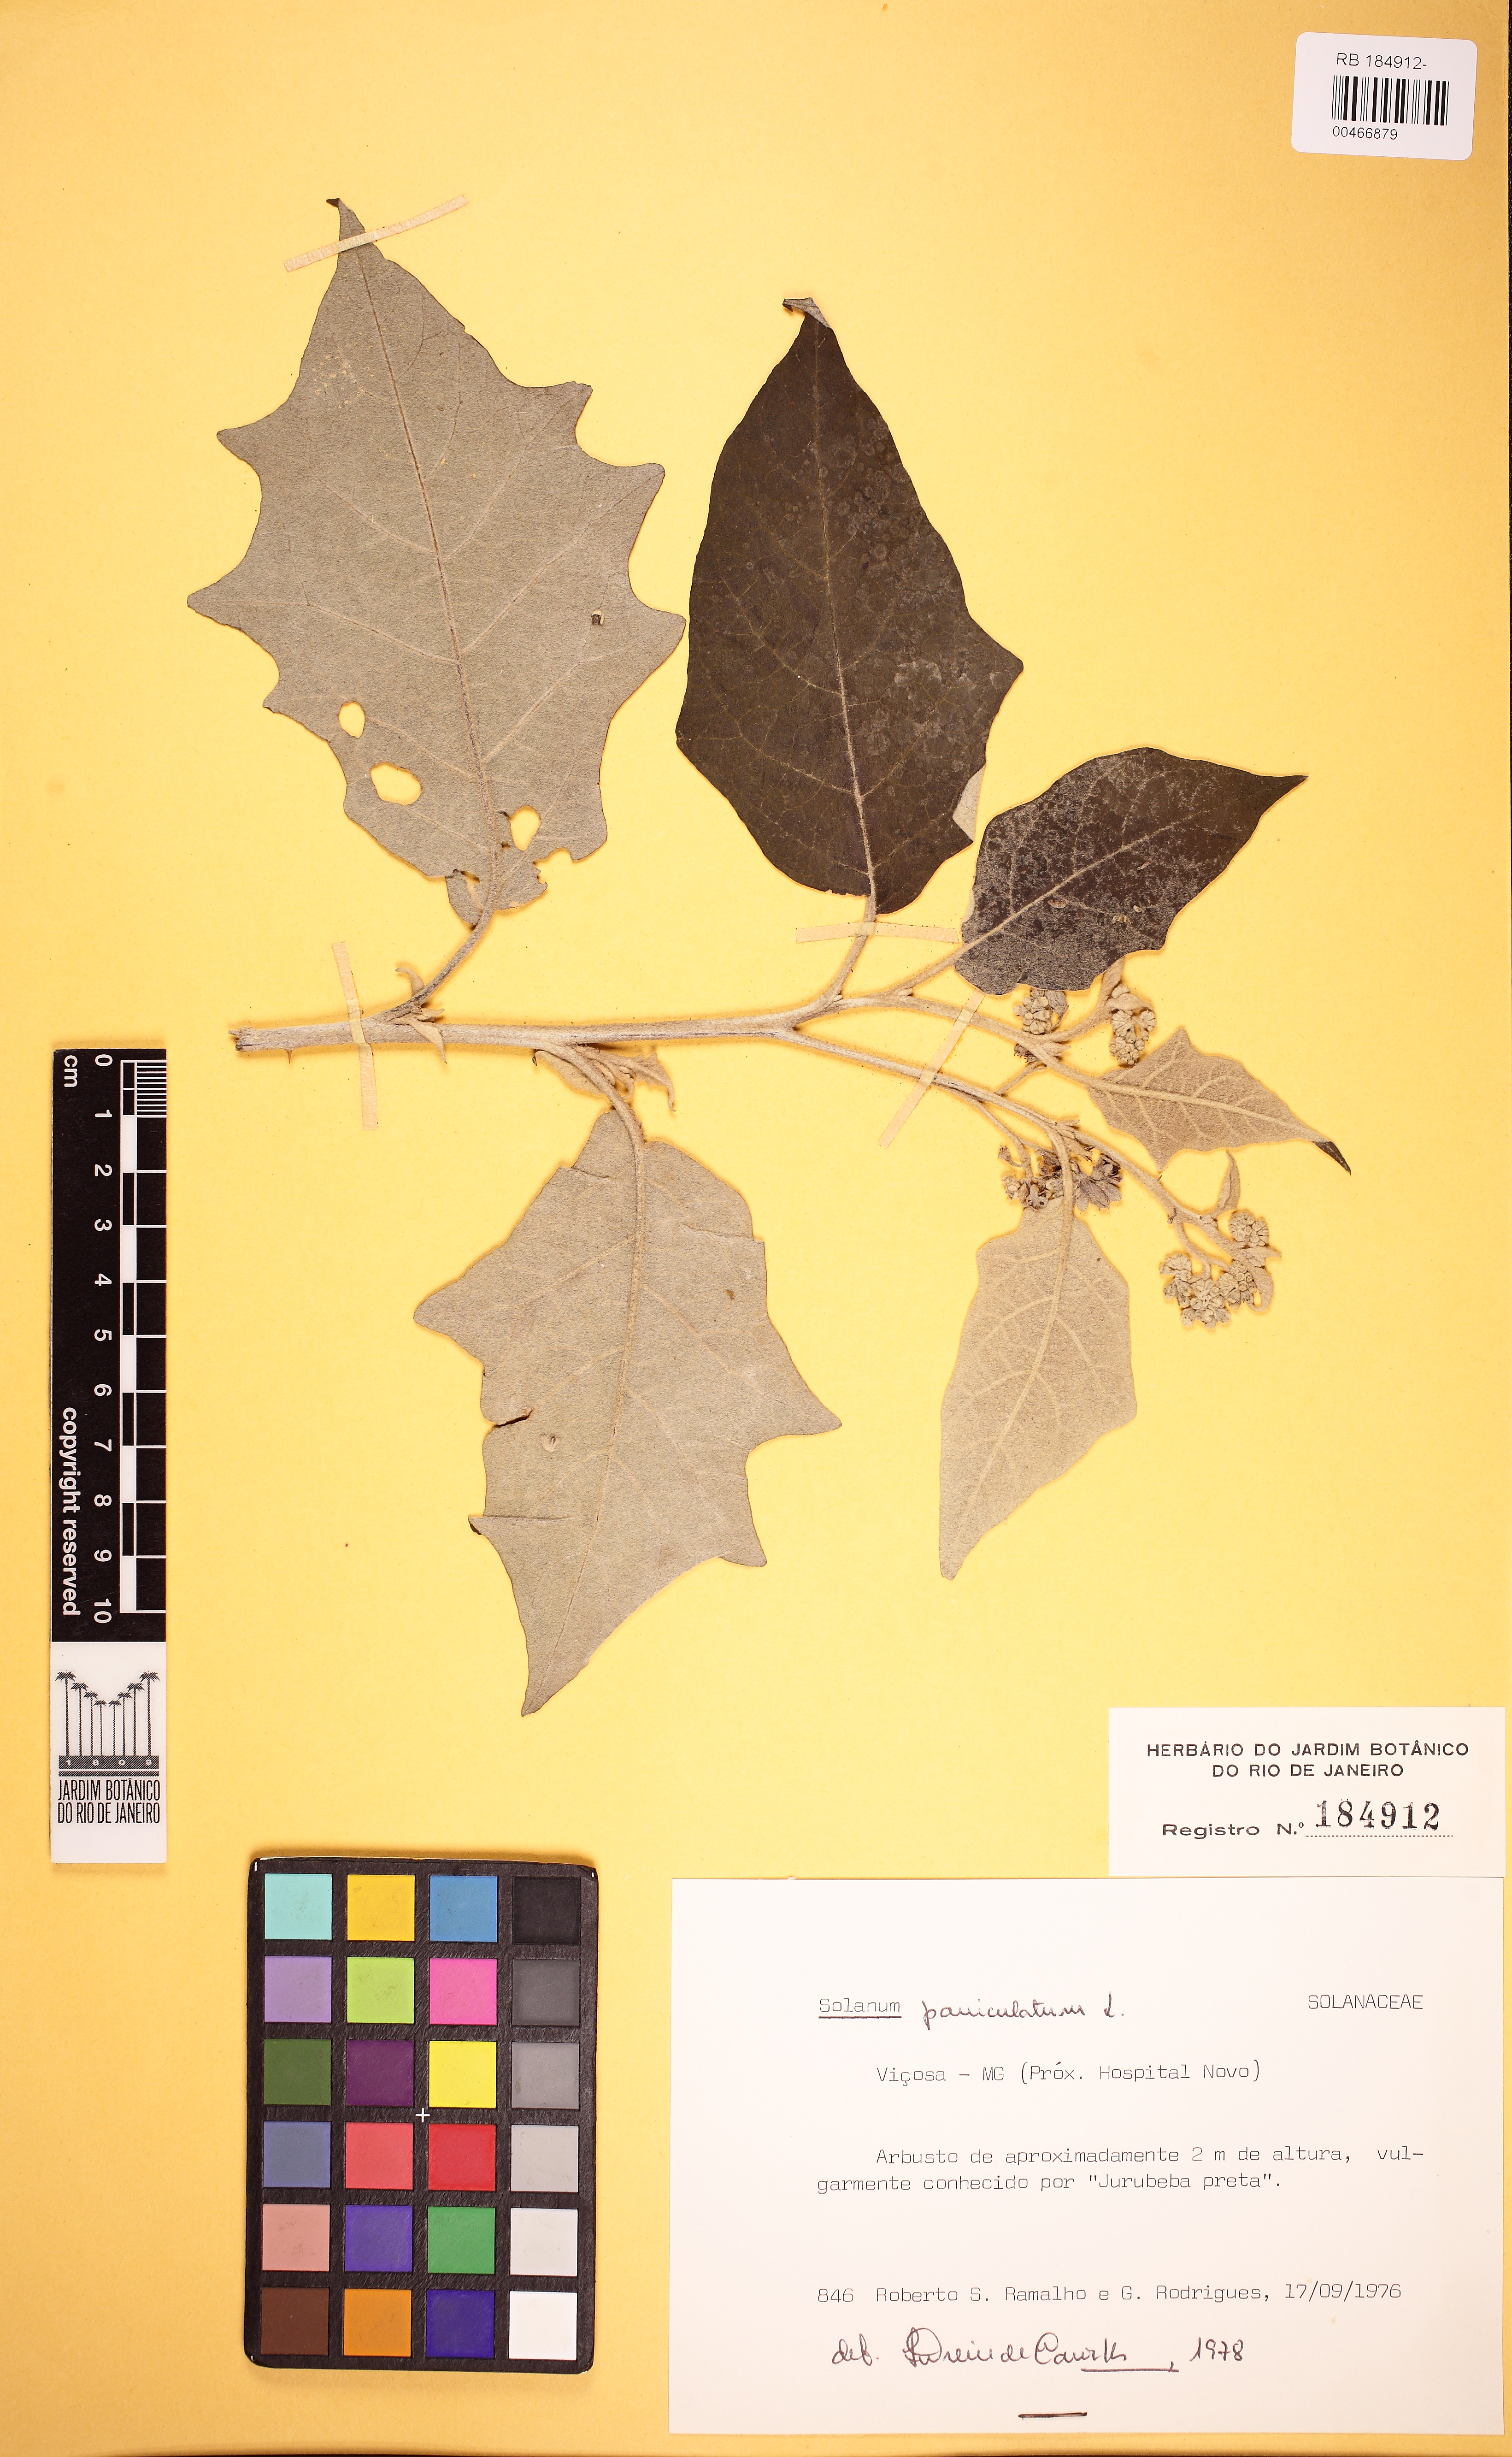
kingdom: Plantae
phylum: Tracheophyta
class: Magnoliopsida
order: Solanales
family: Solanaceae
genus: Solanum
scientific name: Solanum paniculatum
